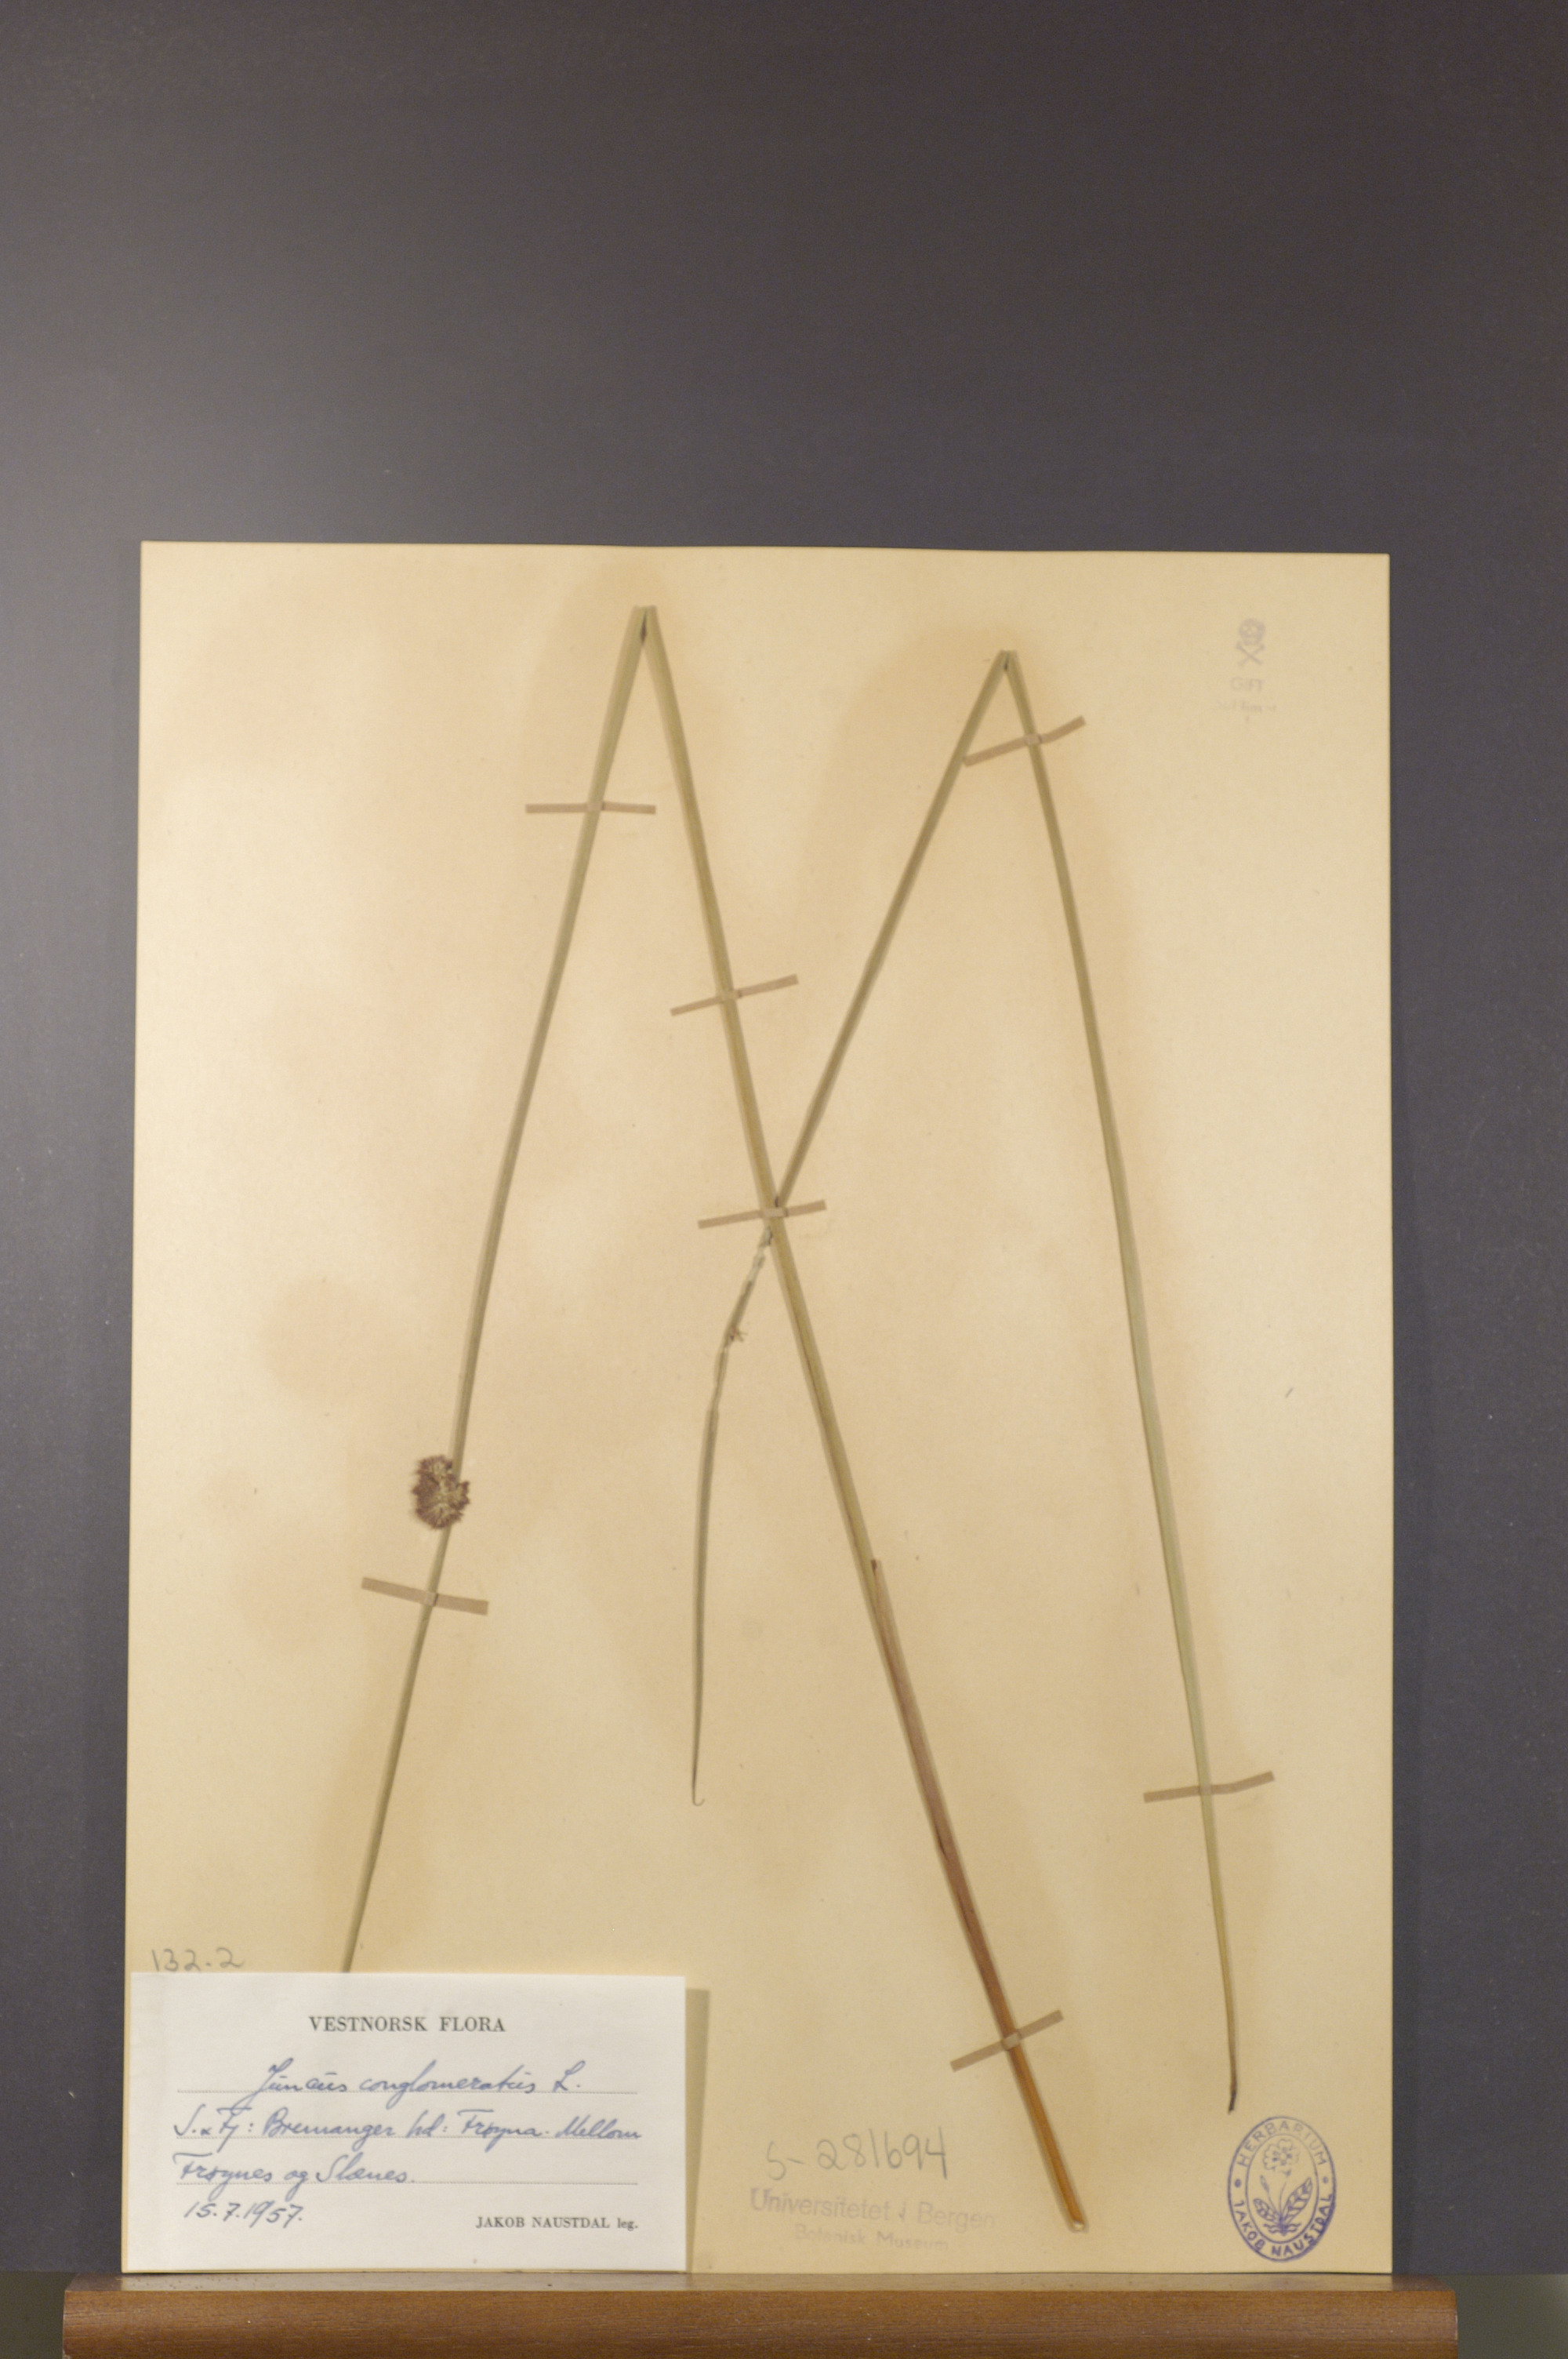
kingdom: Plantae
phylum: Tracheophyta
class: Liliopsida
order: Poales
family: Juncaceae
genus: Juncus
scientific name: Juncus conglomeratus
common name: Compact rush
